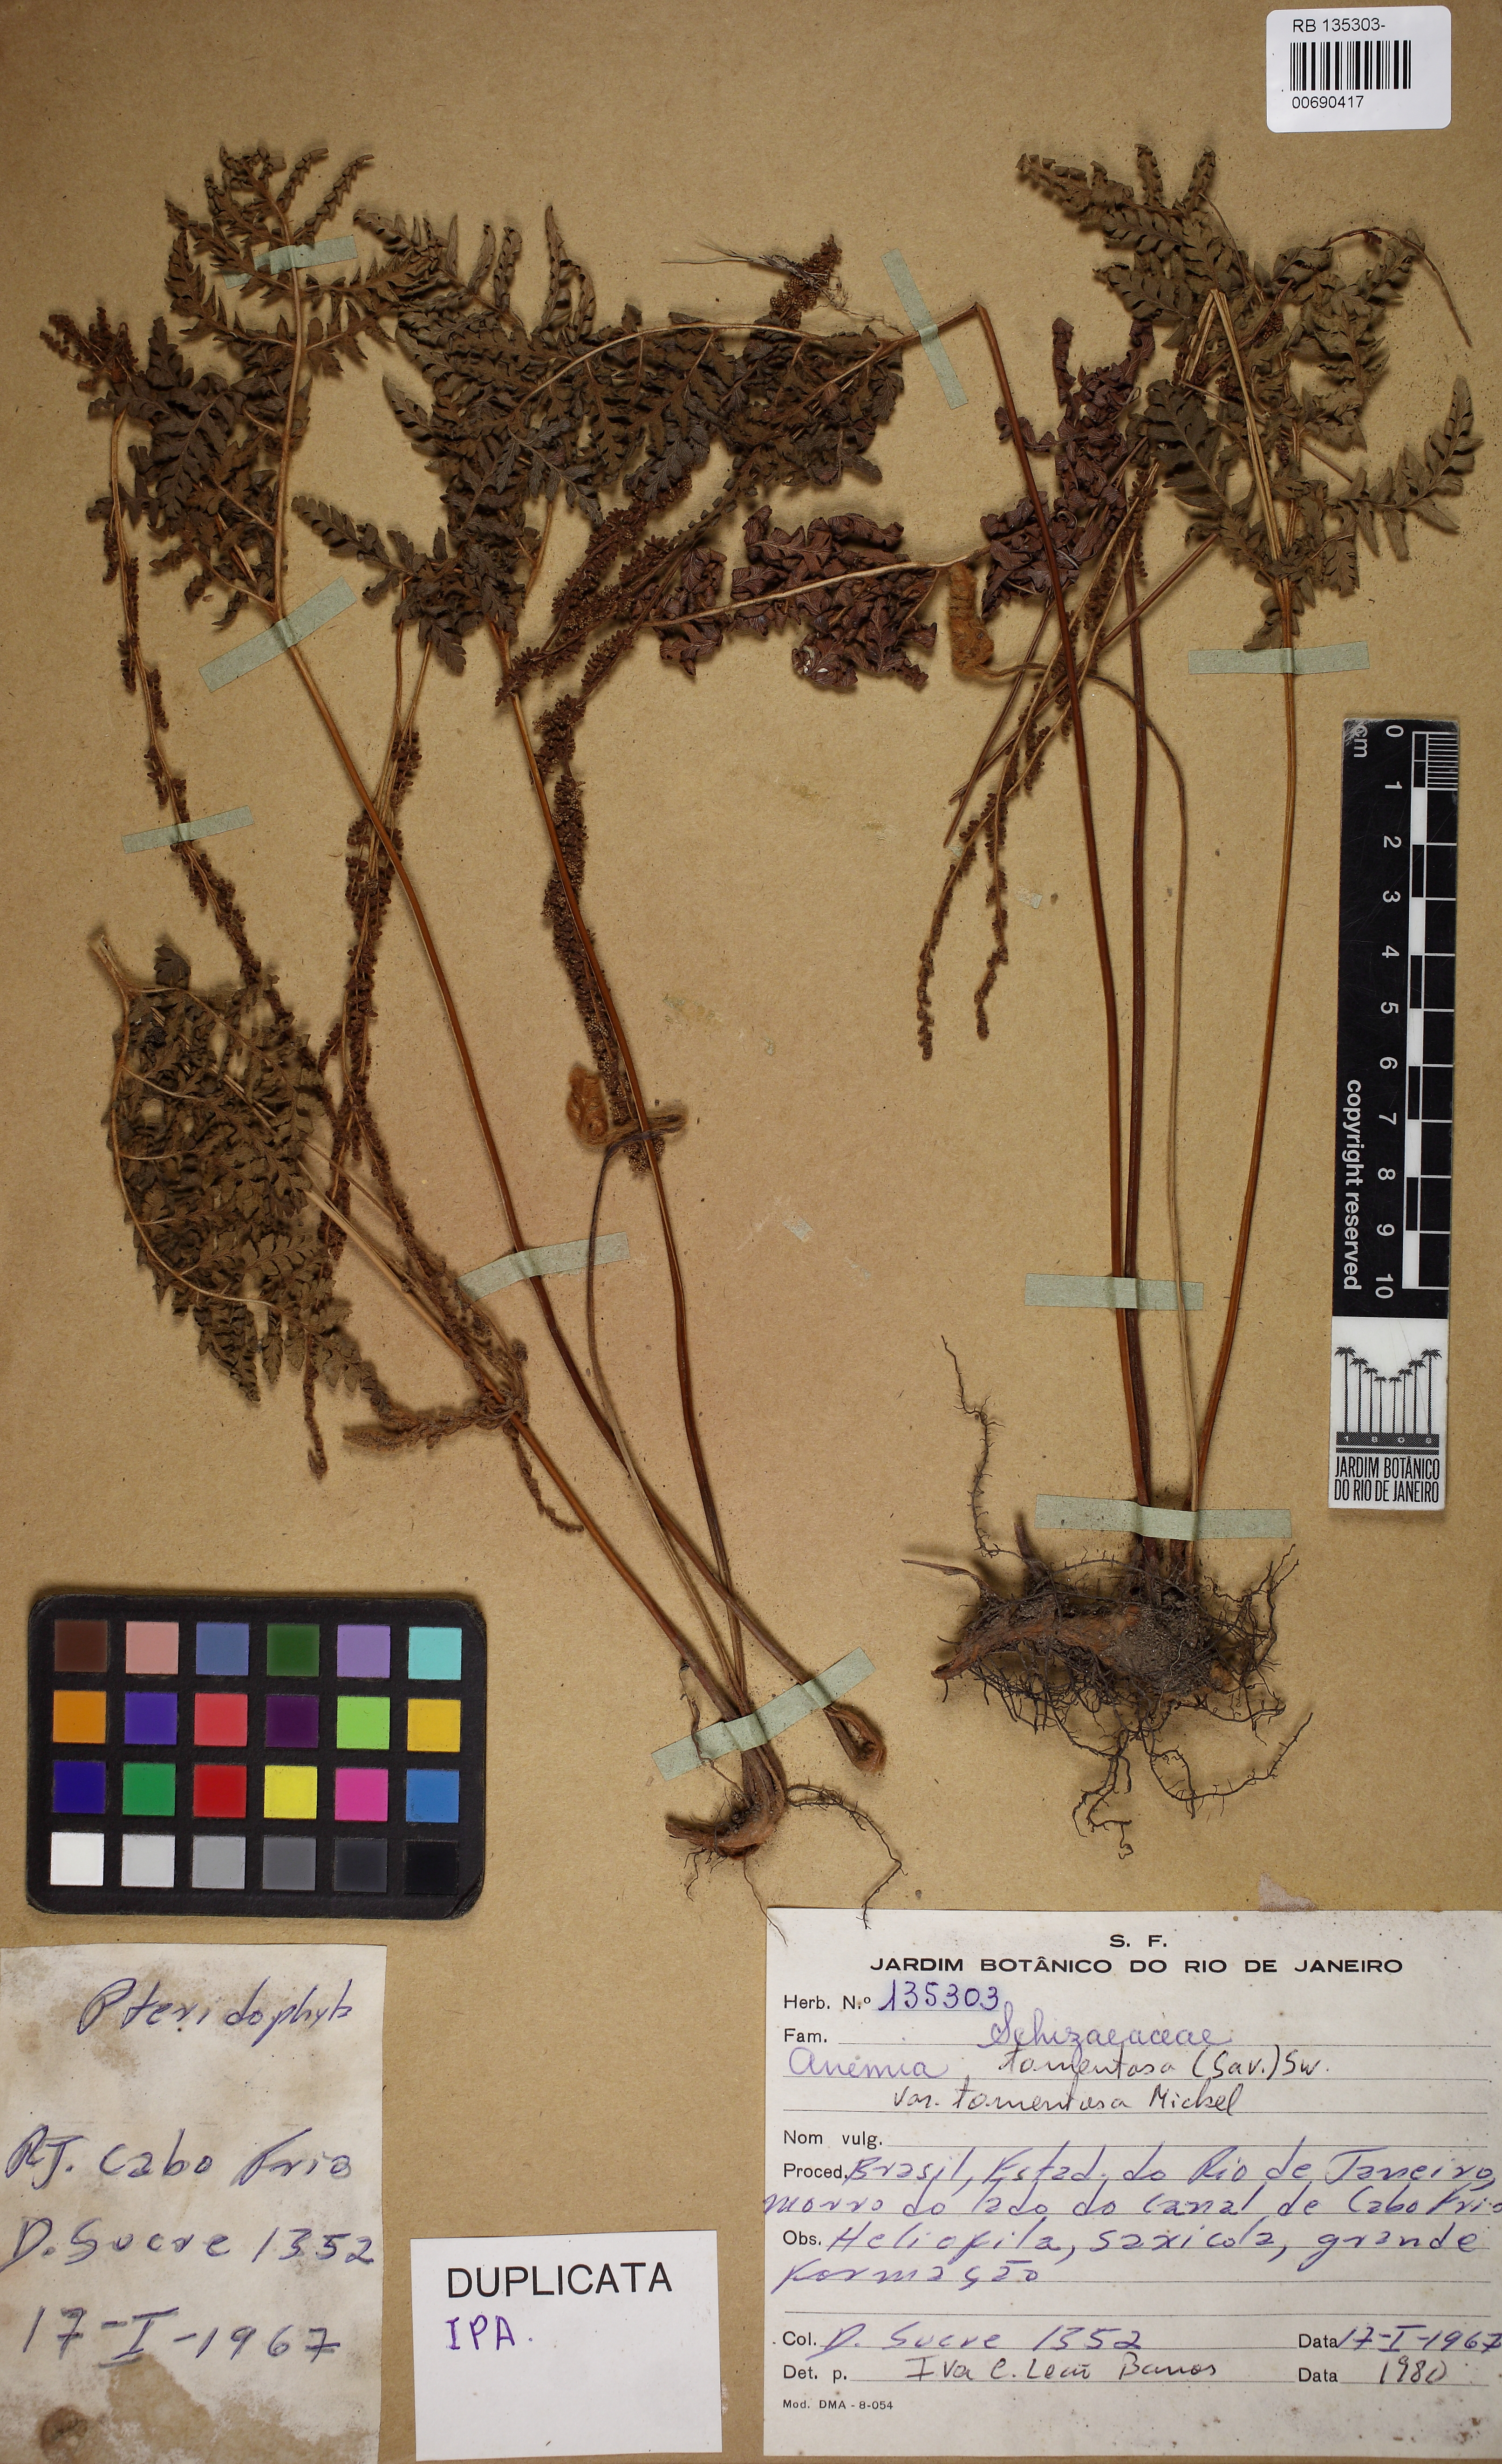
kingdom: Plantae
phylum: Tracheophyta
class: Polypodiopsida
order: Schizaeales
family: Anemiaceae
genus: Anemia
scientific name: Anemia tomentosa
